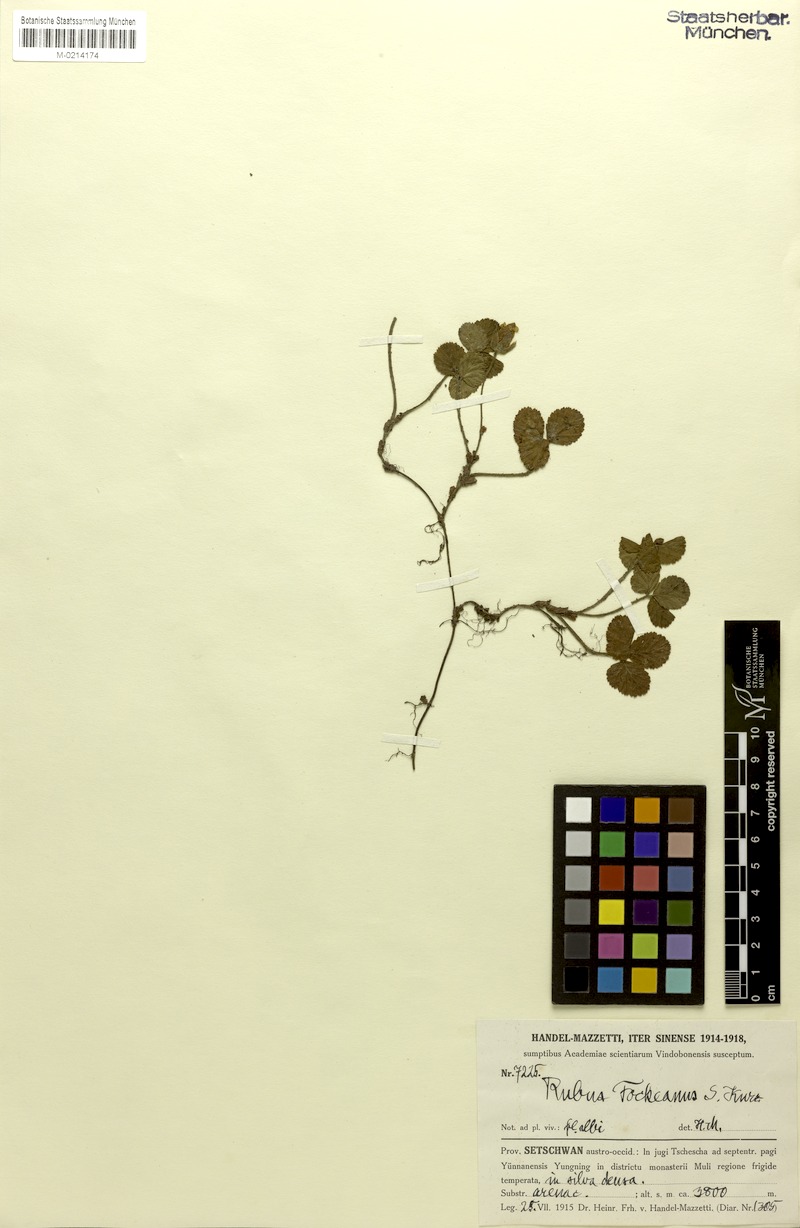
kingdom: Plantae
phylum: Tracheophyta
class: Magnoliopsida
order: Rosales
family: Rosaceae
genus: Rubus
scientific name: Rubus fockeanus
